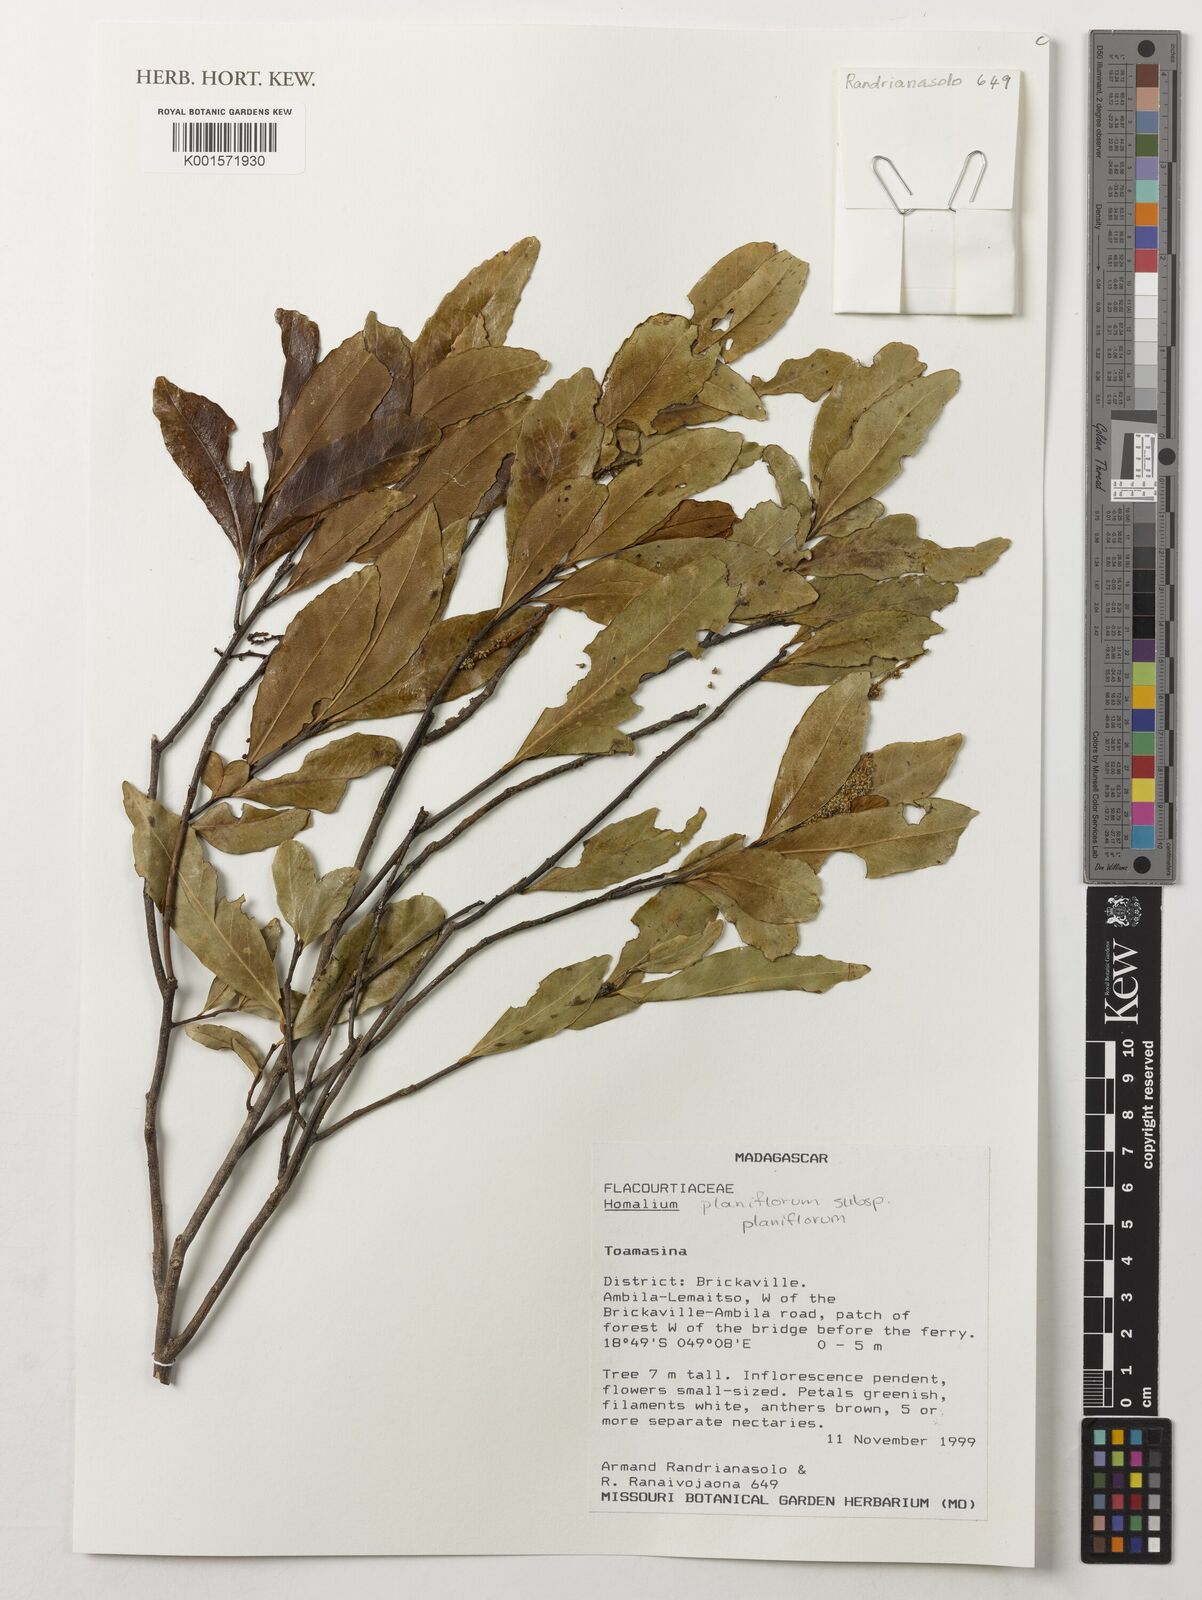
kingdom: Plantae
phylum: Tracheophyta
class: Magnoliopsida
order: Malpighiales
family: Salicaceae
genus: Homalium
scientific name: Homalium planiflorum
